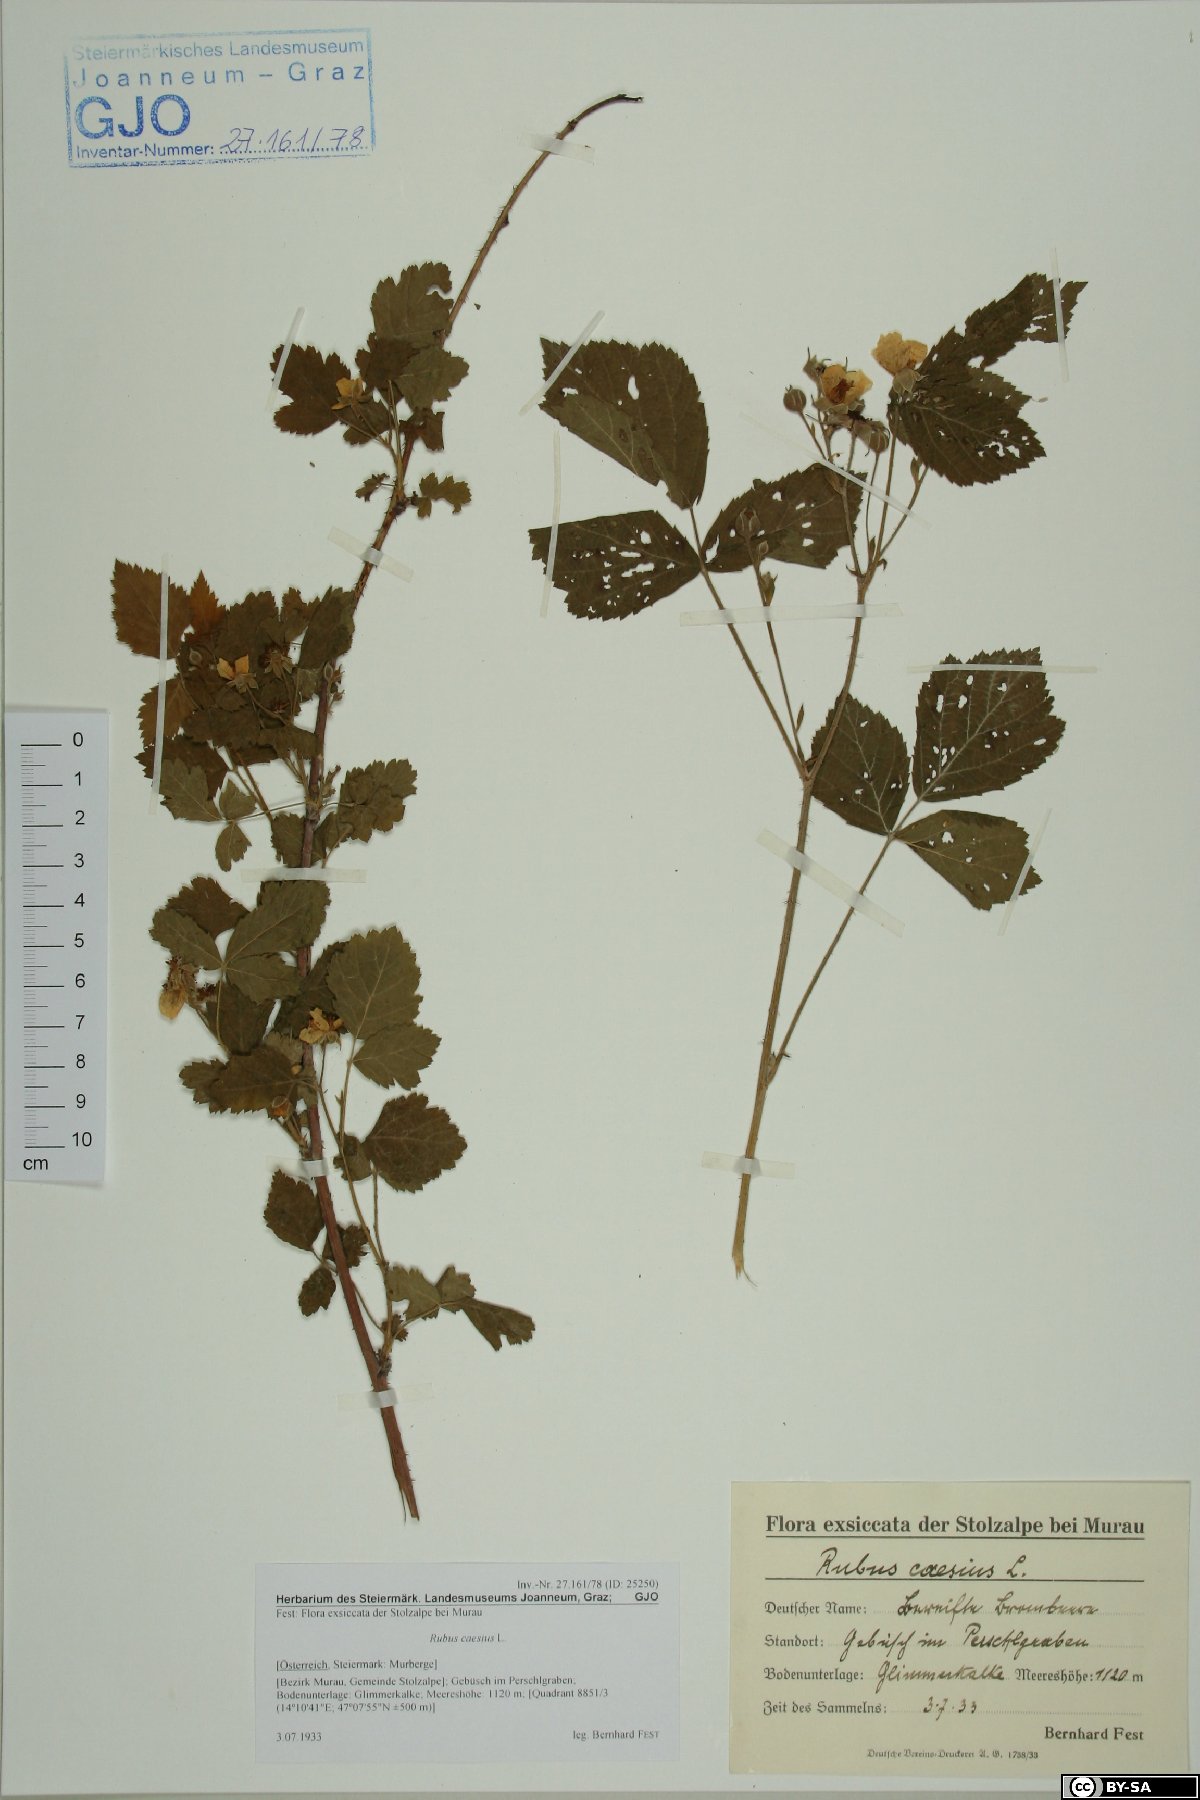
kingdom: Plantae
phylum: Tracheophyta
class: Magnoliopsida
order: Rosales
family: Rosaceae
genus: Rubus
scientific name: Rubus caesius
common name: Dewberry
